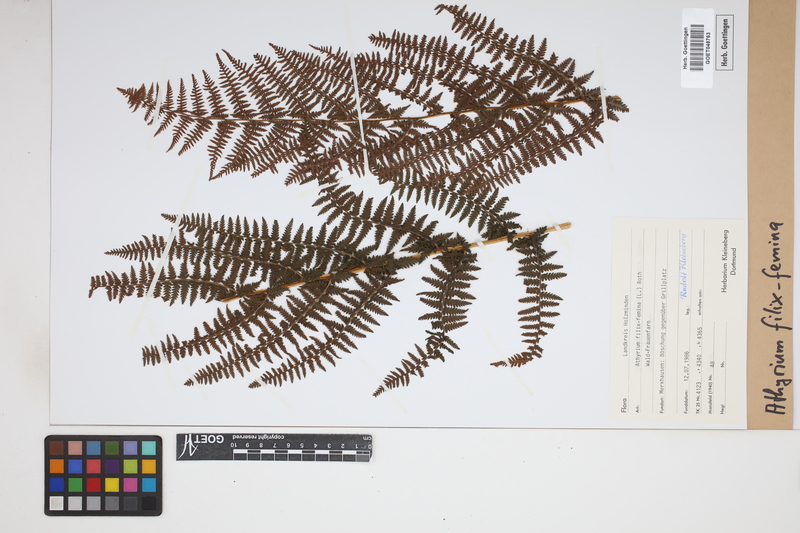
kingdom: Plantae
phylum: Tracheophyta
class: Polypodiopsida
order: Polypodiales
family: Athyriaceae
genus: Athyrium
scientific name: Athyrium filix-femina
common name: Lady fern
